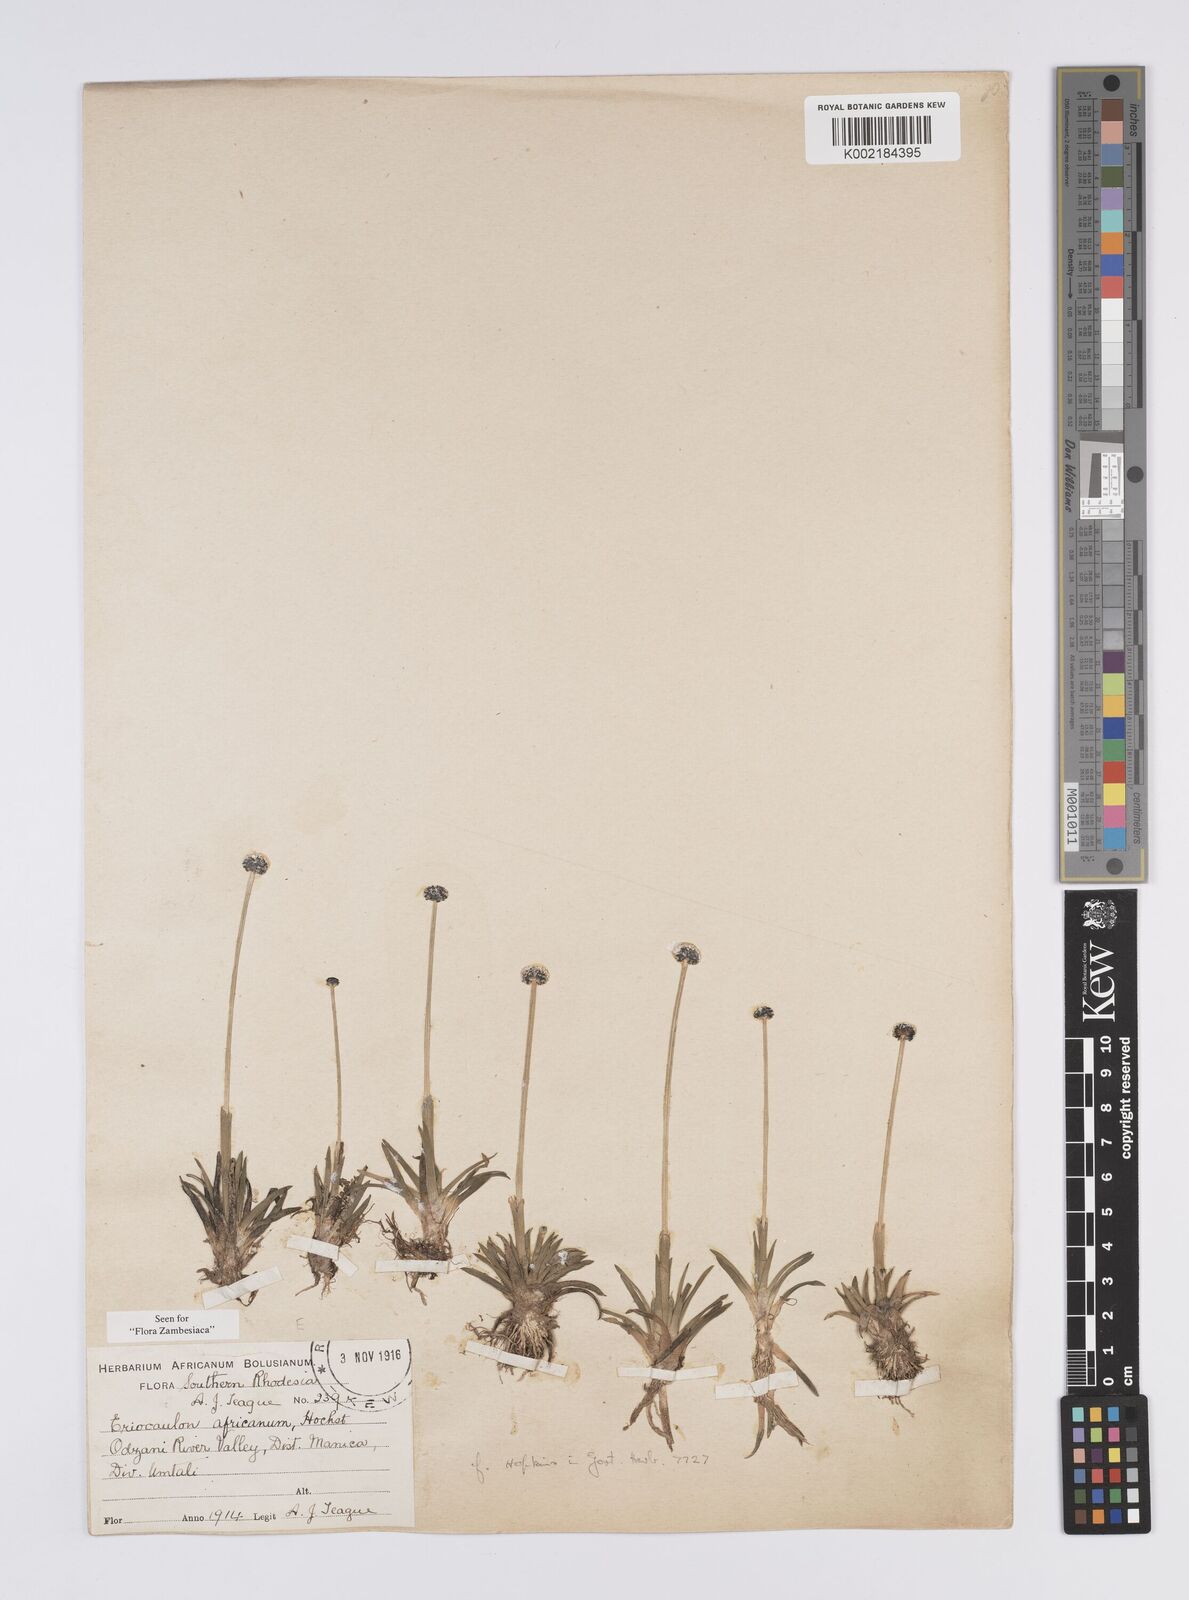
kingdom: Plantae
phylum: Tracheophyta
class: Liliopsida
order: Poales
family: Eriocaulaceae
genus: Eriocaulon
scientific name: Eriocaulon africanum
